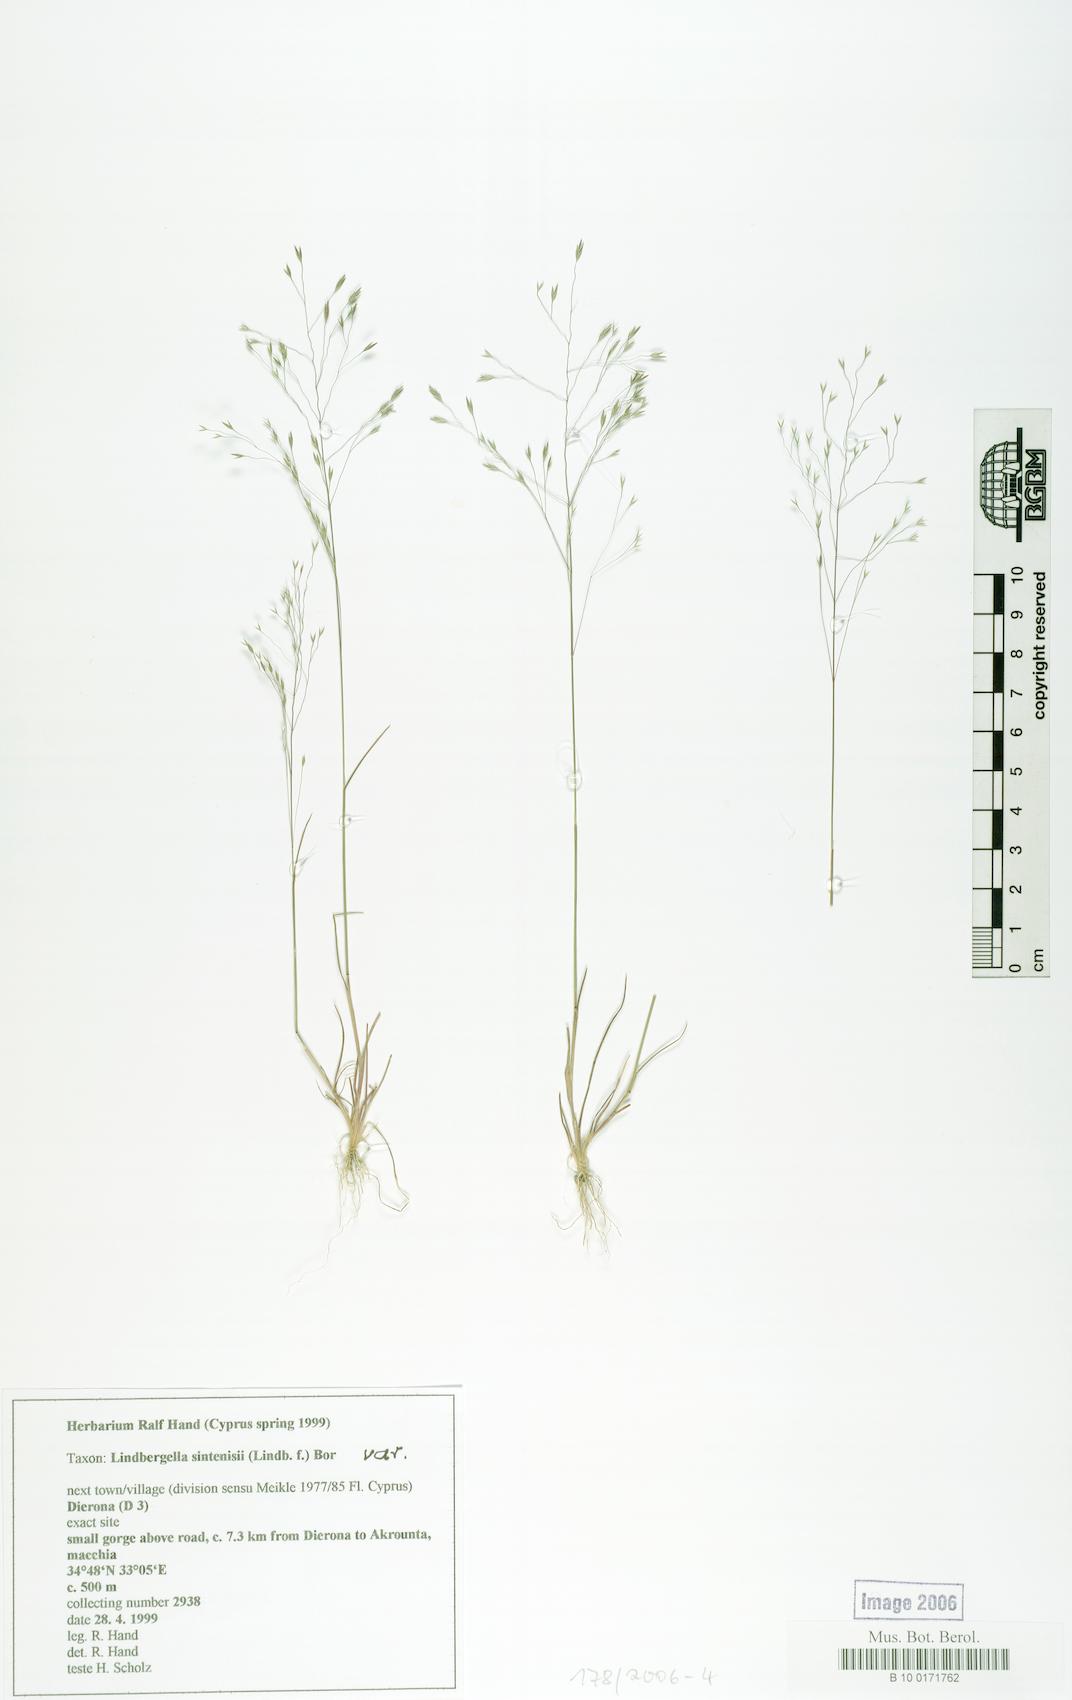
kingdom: Plantae
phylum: Tracheophyta
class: Liliopsida
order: Poales
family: Poaceae
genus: Poa
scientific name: Poa sintenisii
